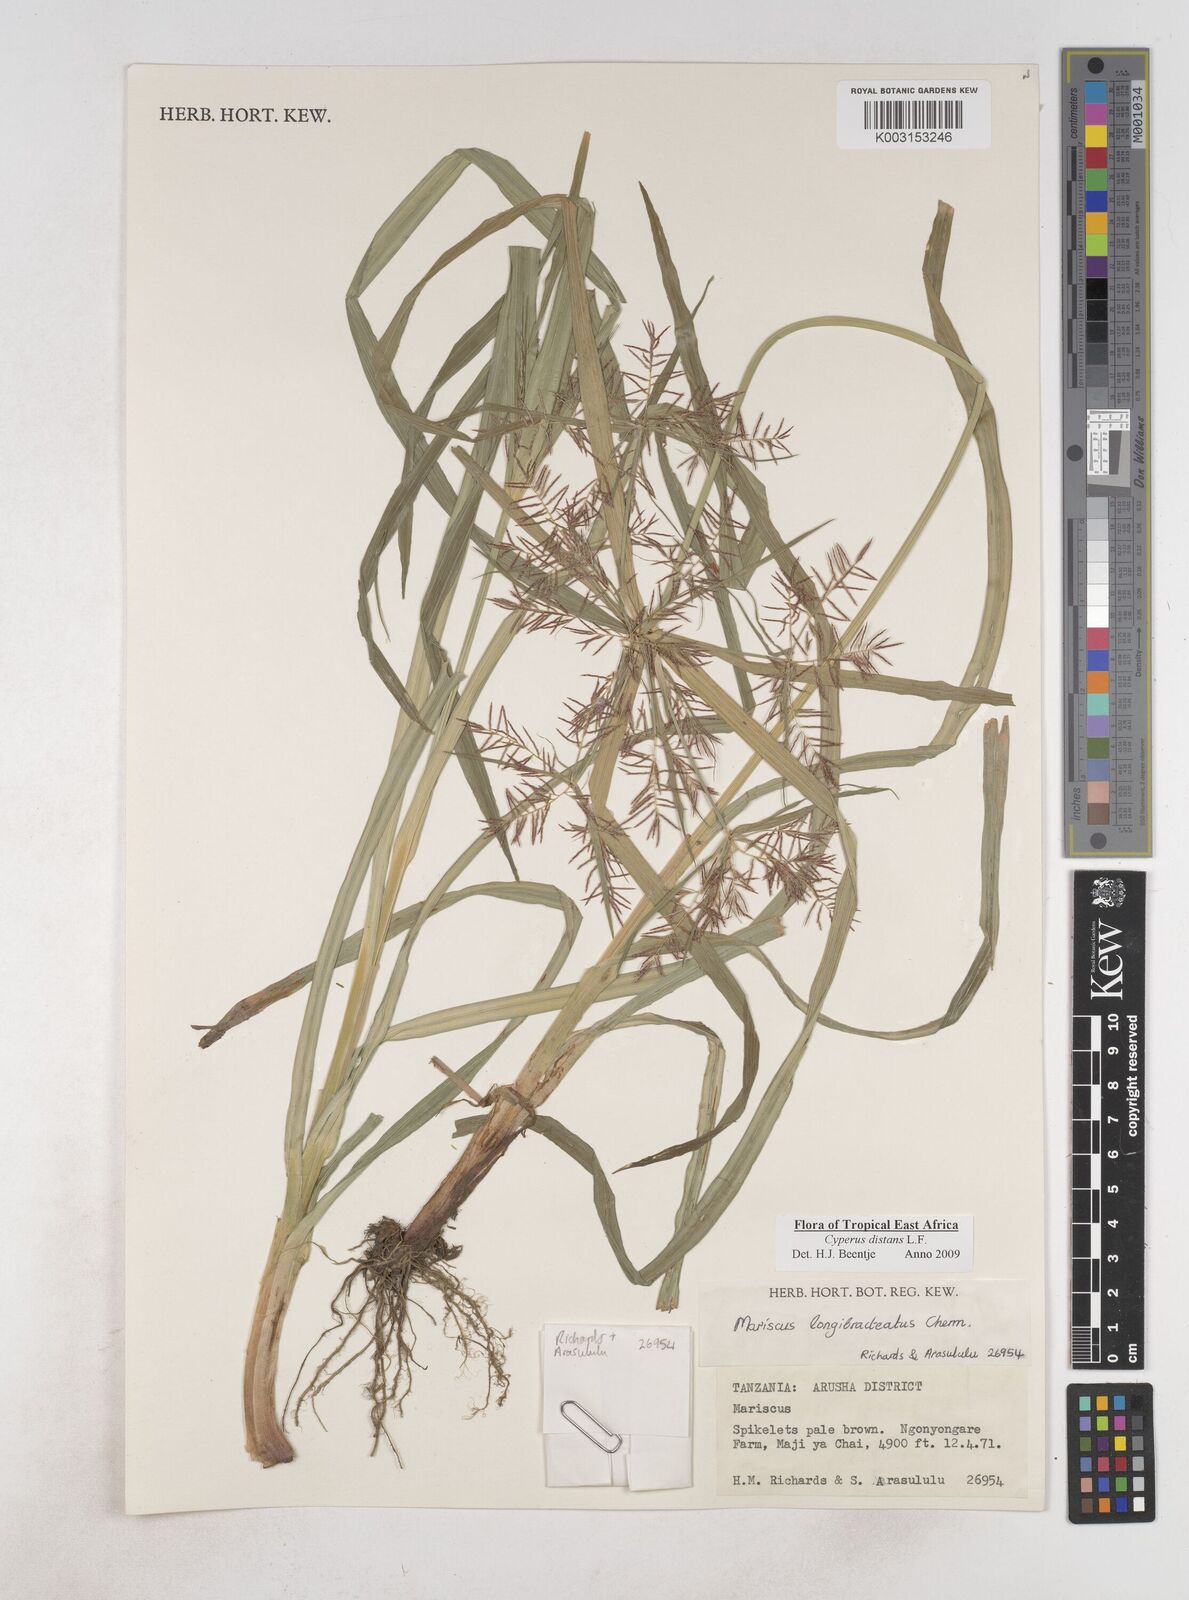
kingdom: Plantae
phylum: Tracheophyta
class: Liliopsida
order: Poales
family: Cyperaceae
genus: Cyperus
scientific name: Cyperus distans
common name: Slender cyperus
